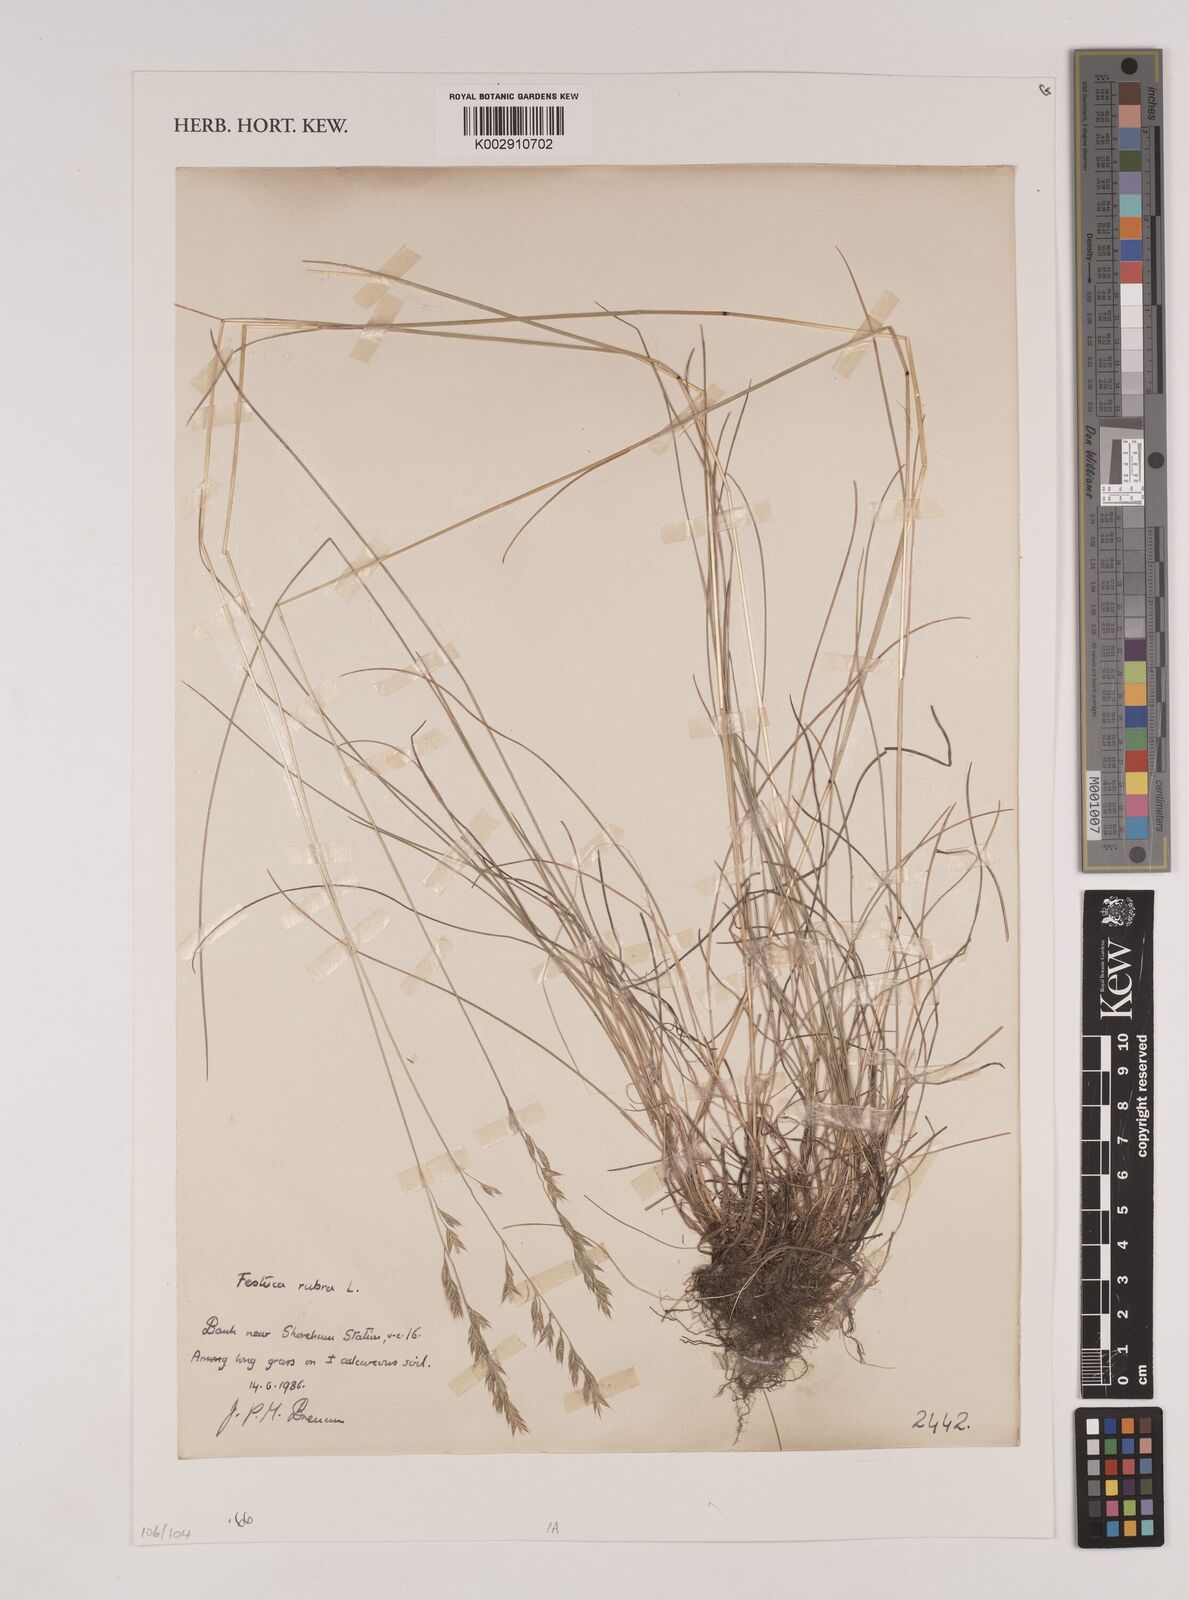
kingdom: Plantae
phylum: Tracheophyta
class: Liliopsida
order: Poales
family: Poaceae
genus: Festuca
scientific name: Festuca rubra
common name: Red fescue
